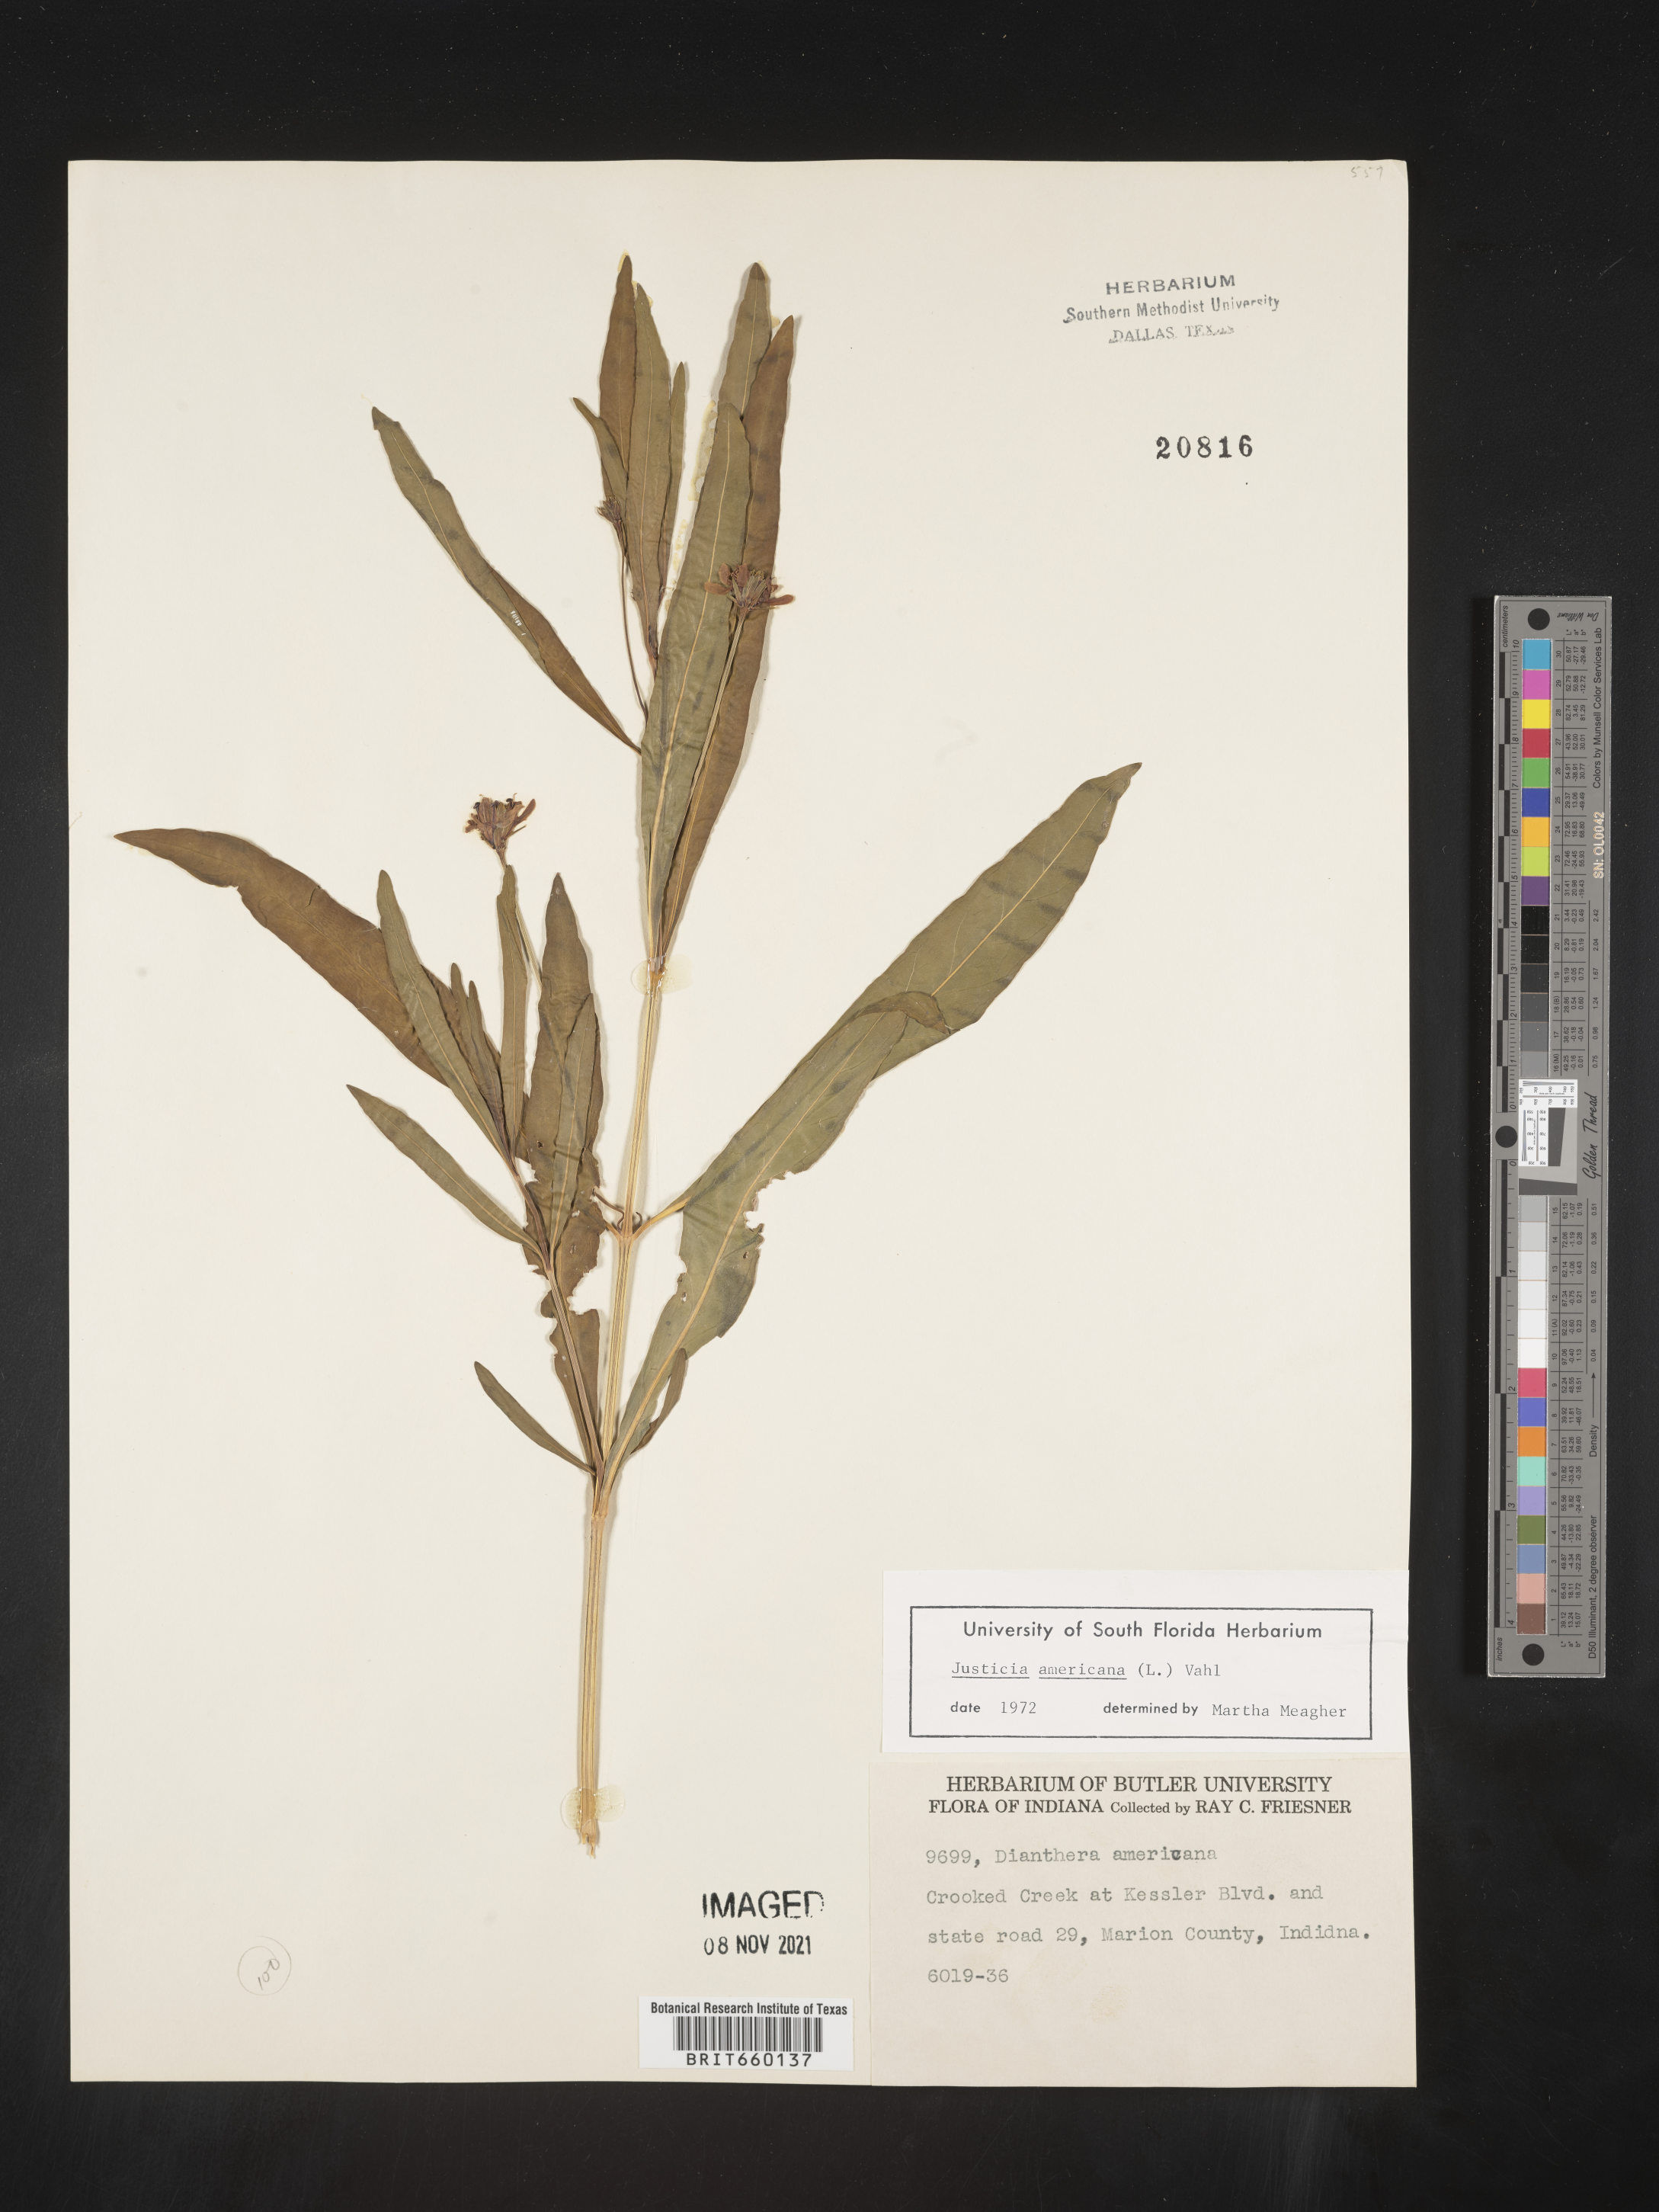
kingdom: Plantae
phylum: Tracheophyta
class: Magnoliopsida
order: Lamiales
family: Acanthaceae
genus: Dianthera
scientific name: Dianthera americana
